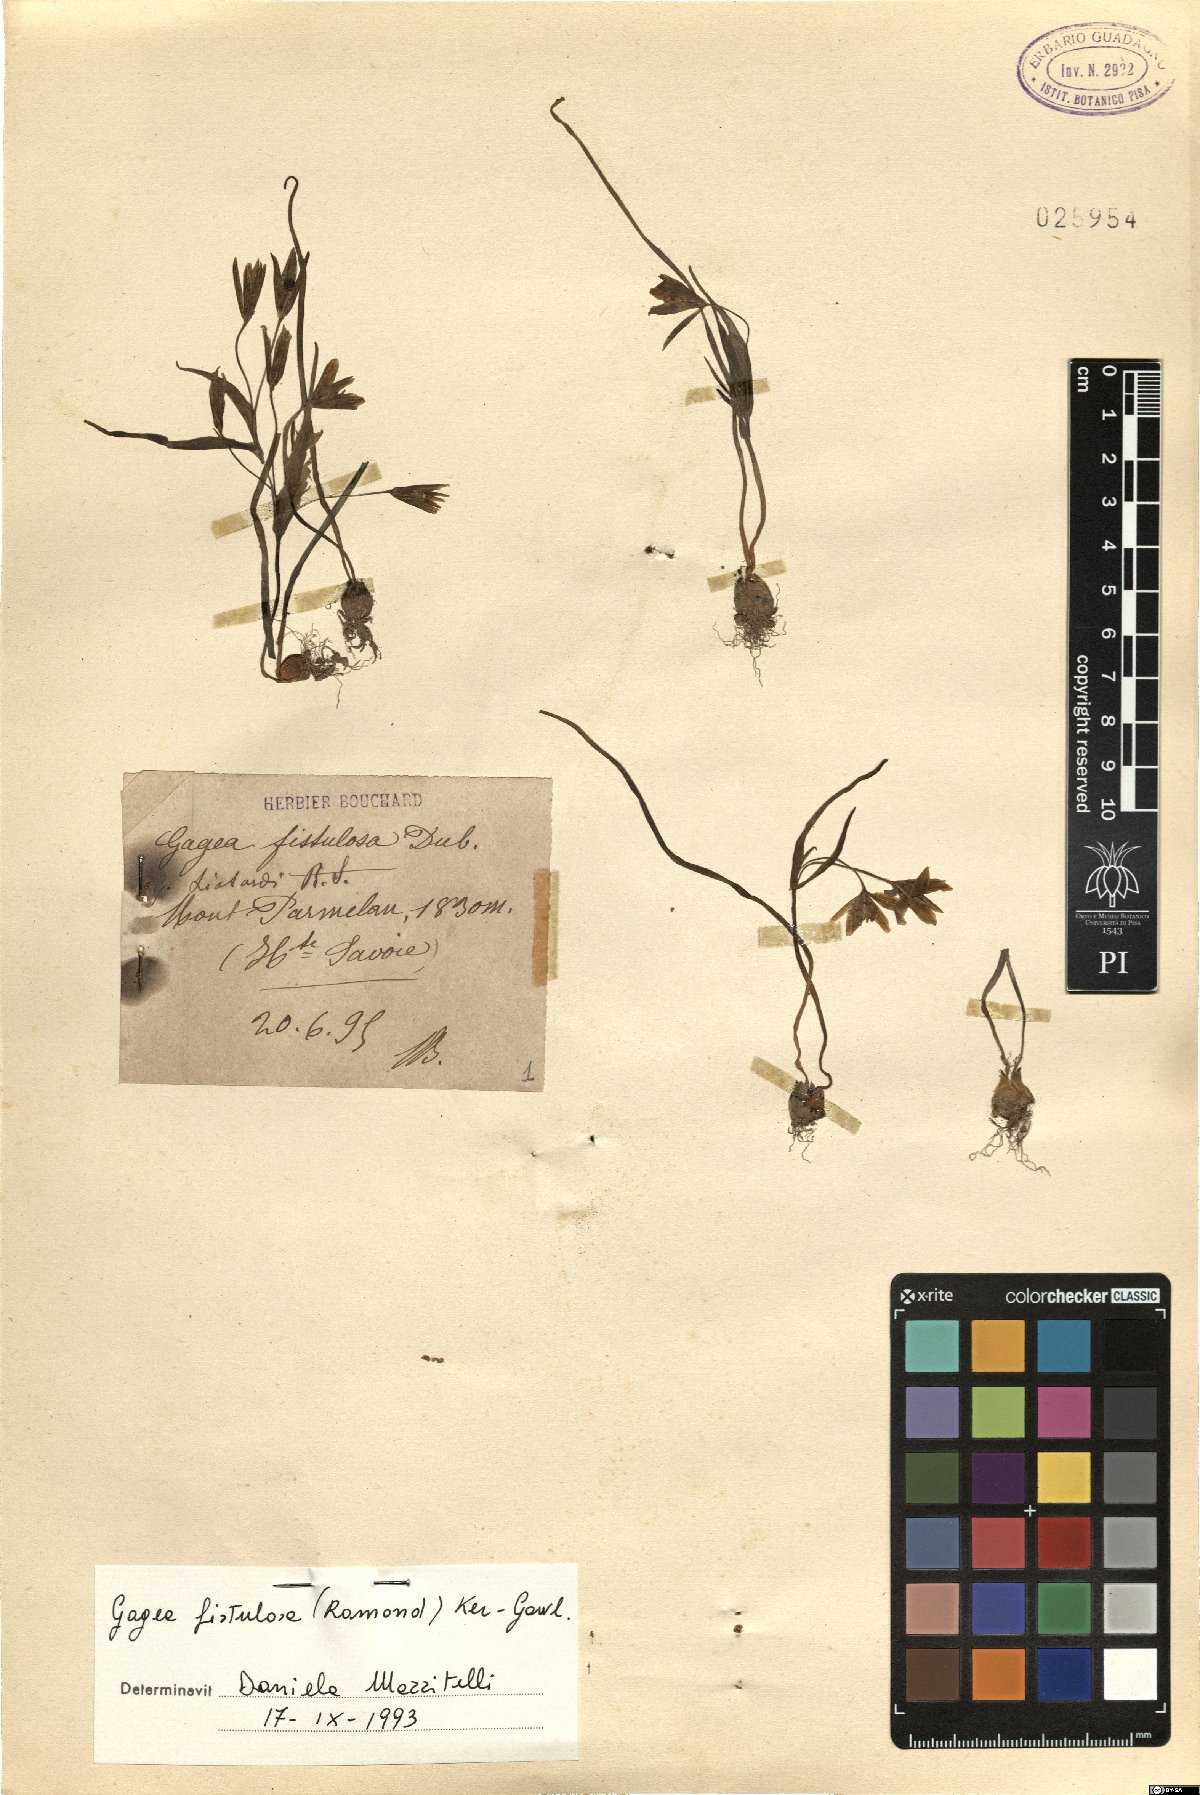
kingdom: Plantae
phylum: Tracheophyta
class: Liliopsida
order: Liliales
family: Liliaceae
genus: Gagea
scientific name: Gagea bohemica
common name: Early star-of-bethlehem
